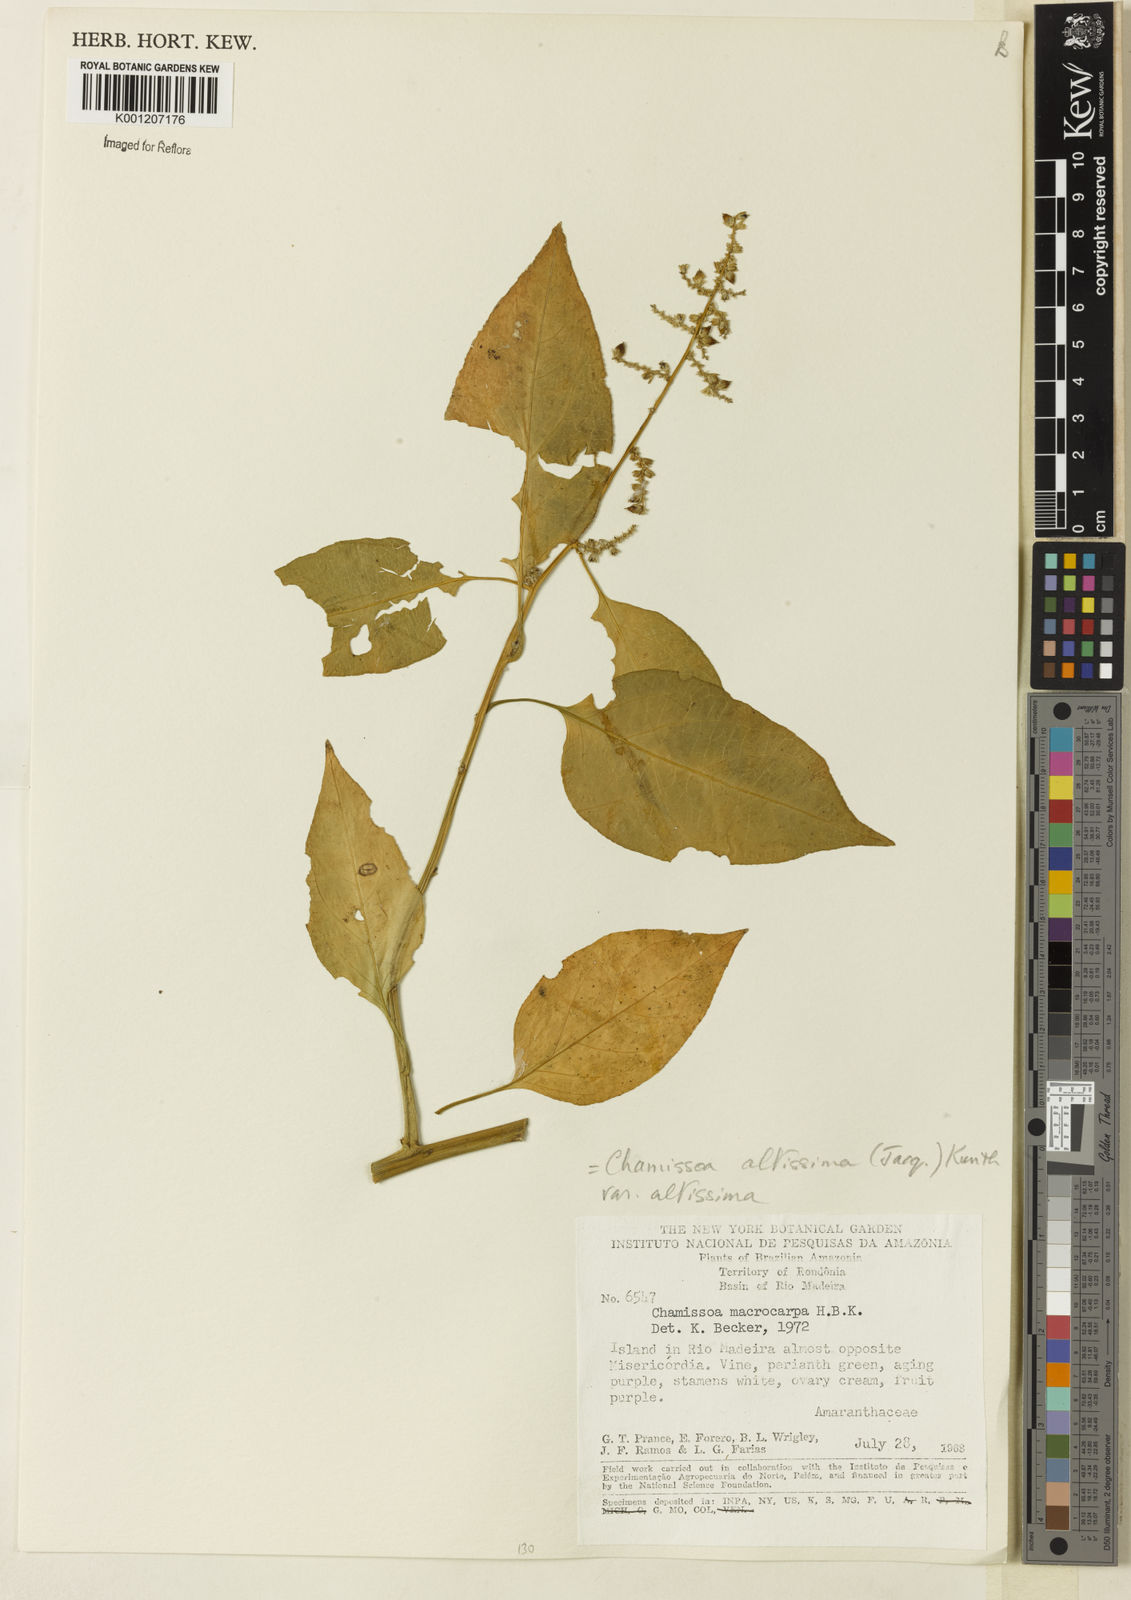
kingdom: Plantae
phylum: Tracheophyta
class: Magnoliopsida
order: Caryophyllales
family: Amaranthaceae
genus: Chamissoa
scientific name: Chamissoa altissima
